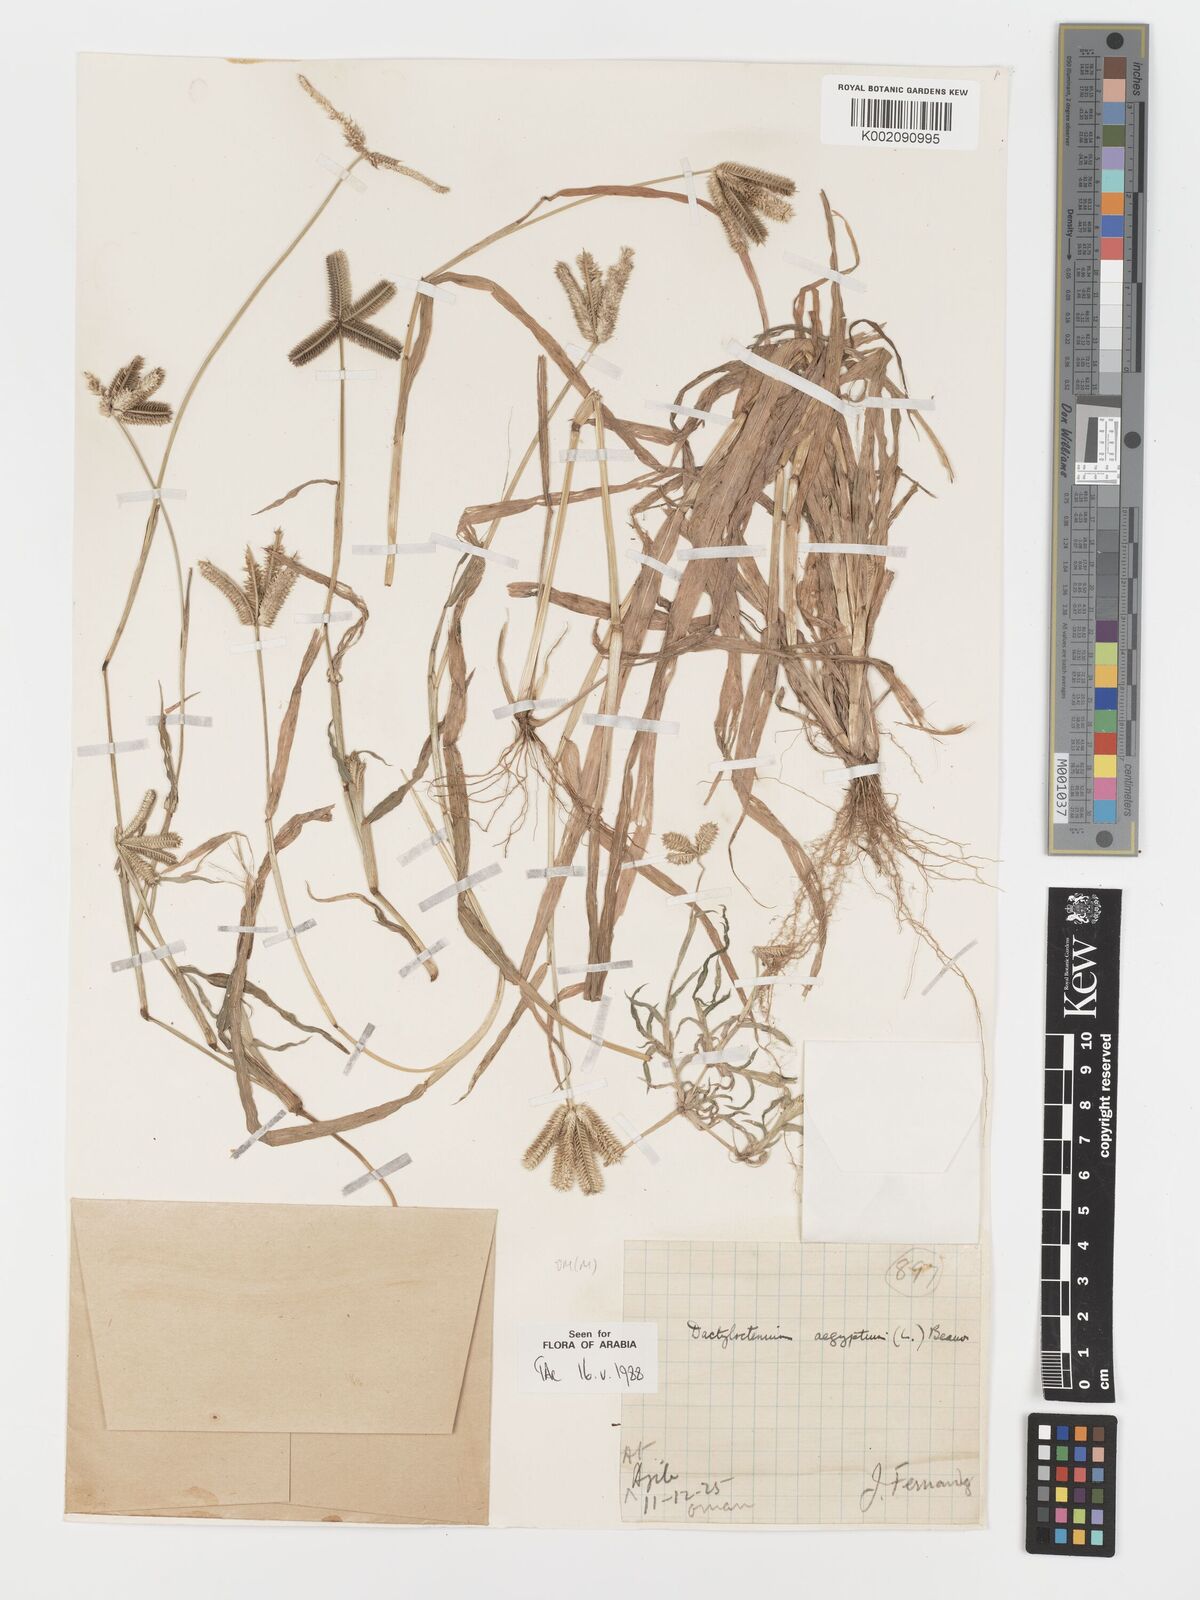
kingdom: Plantae
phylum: Tracheophyta
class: Liliopsida
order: Poales
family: Poaceae
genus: Dactyloctenium
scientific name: Dactyloctenium aegyptium
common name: Egyptian grass
